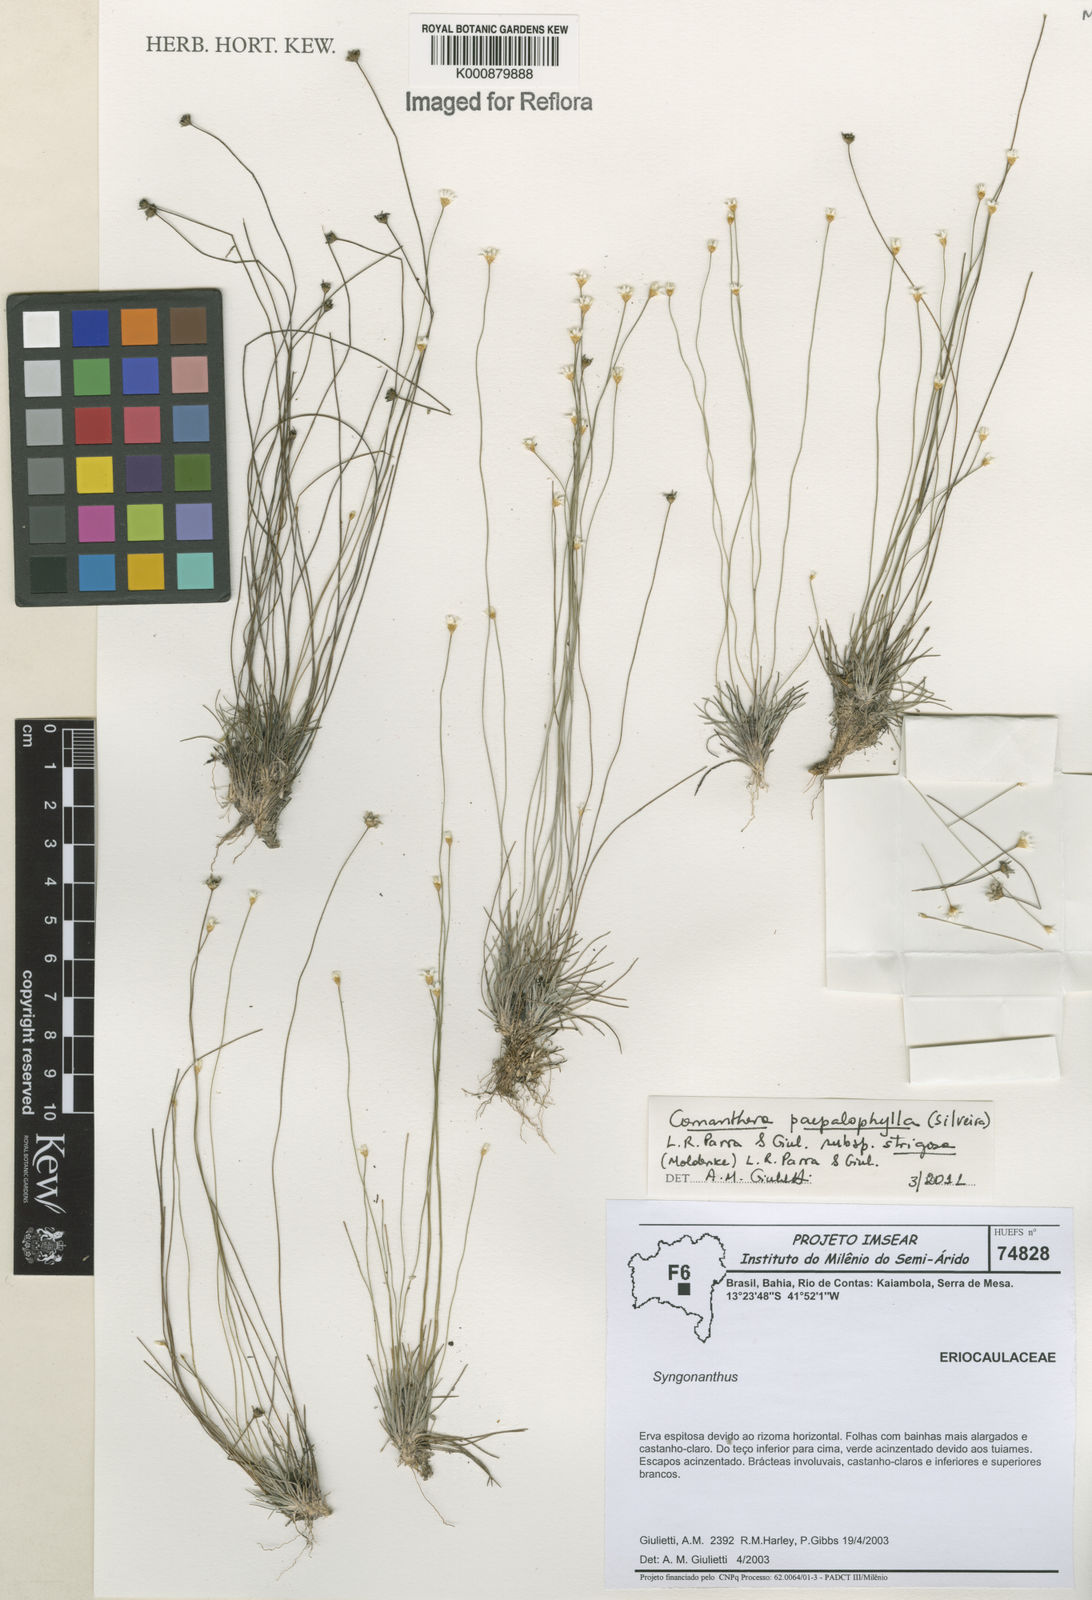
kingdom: Plantae
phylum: Tracheophyta
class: Liliopsida
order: Poales
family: Eriocaulaceae
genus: Comanthera
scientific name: Comanthera paepalophylla
